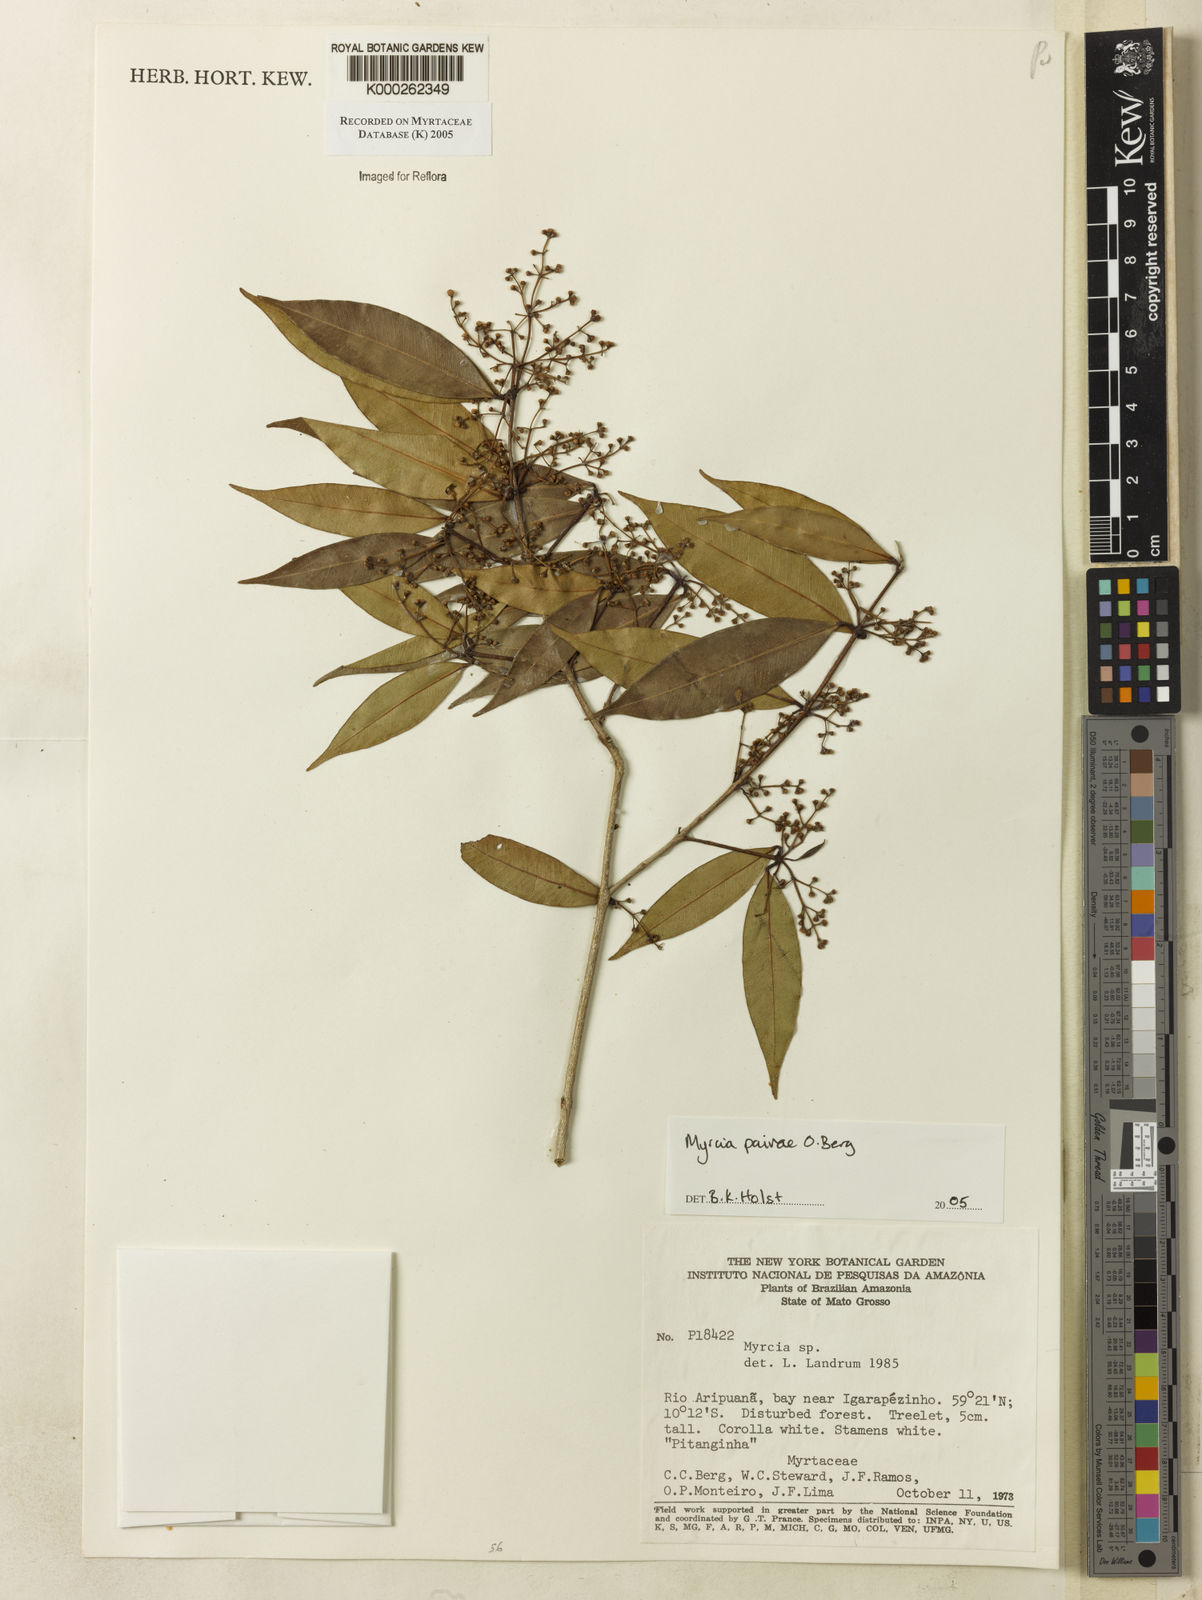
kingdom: Plantae
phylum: Tracheophyta
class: Magnoliopsida
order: Myrtales
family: Myrtaceae
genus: Myrcia
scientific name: Myrcia paivae
